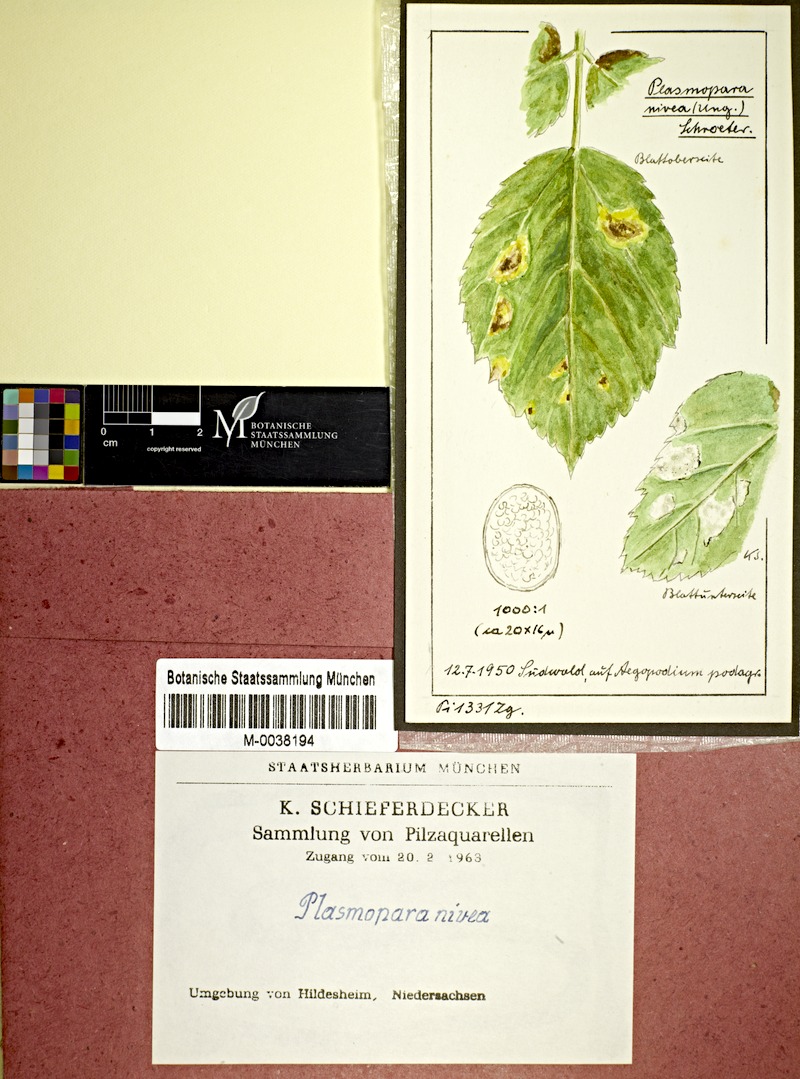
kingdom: Plantae
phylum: Tracheophyta
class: Magnoliopsida
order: Apiales
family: Apiaceae
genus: Aegopodium
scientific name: Aegopodium podagraria
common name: Ground-elder
